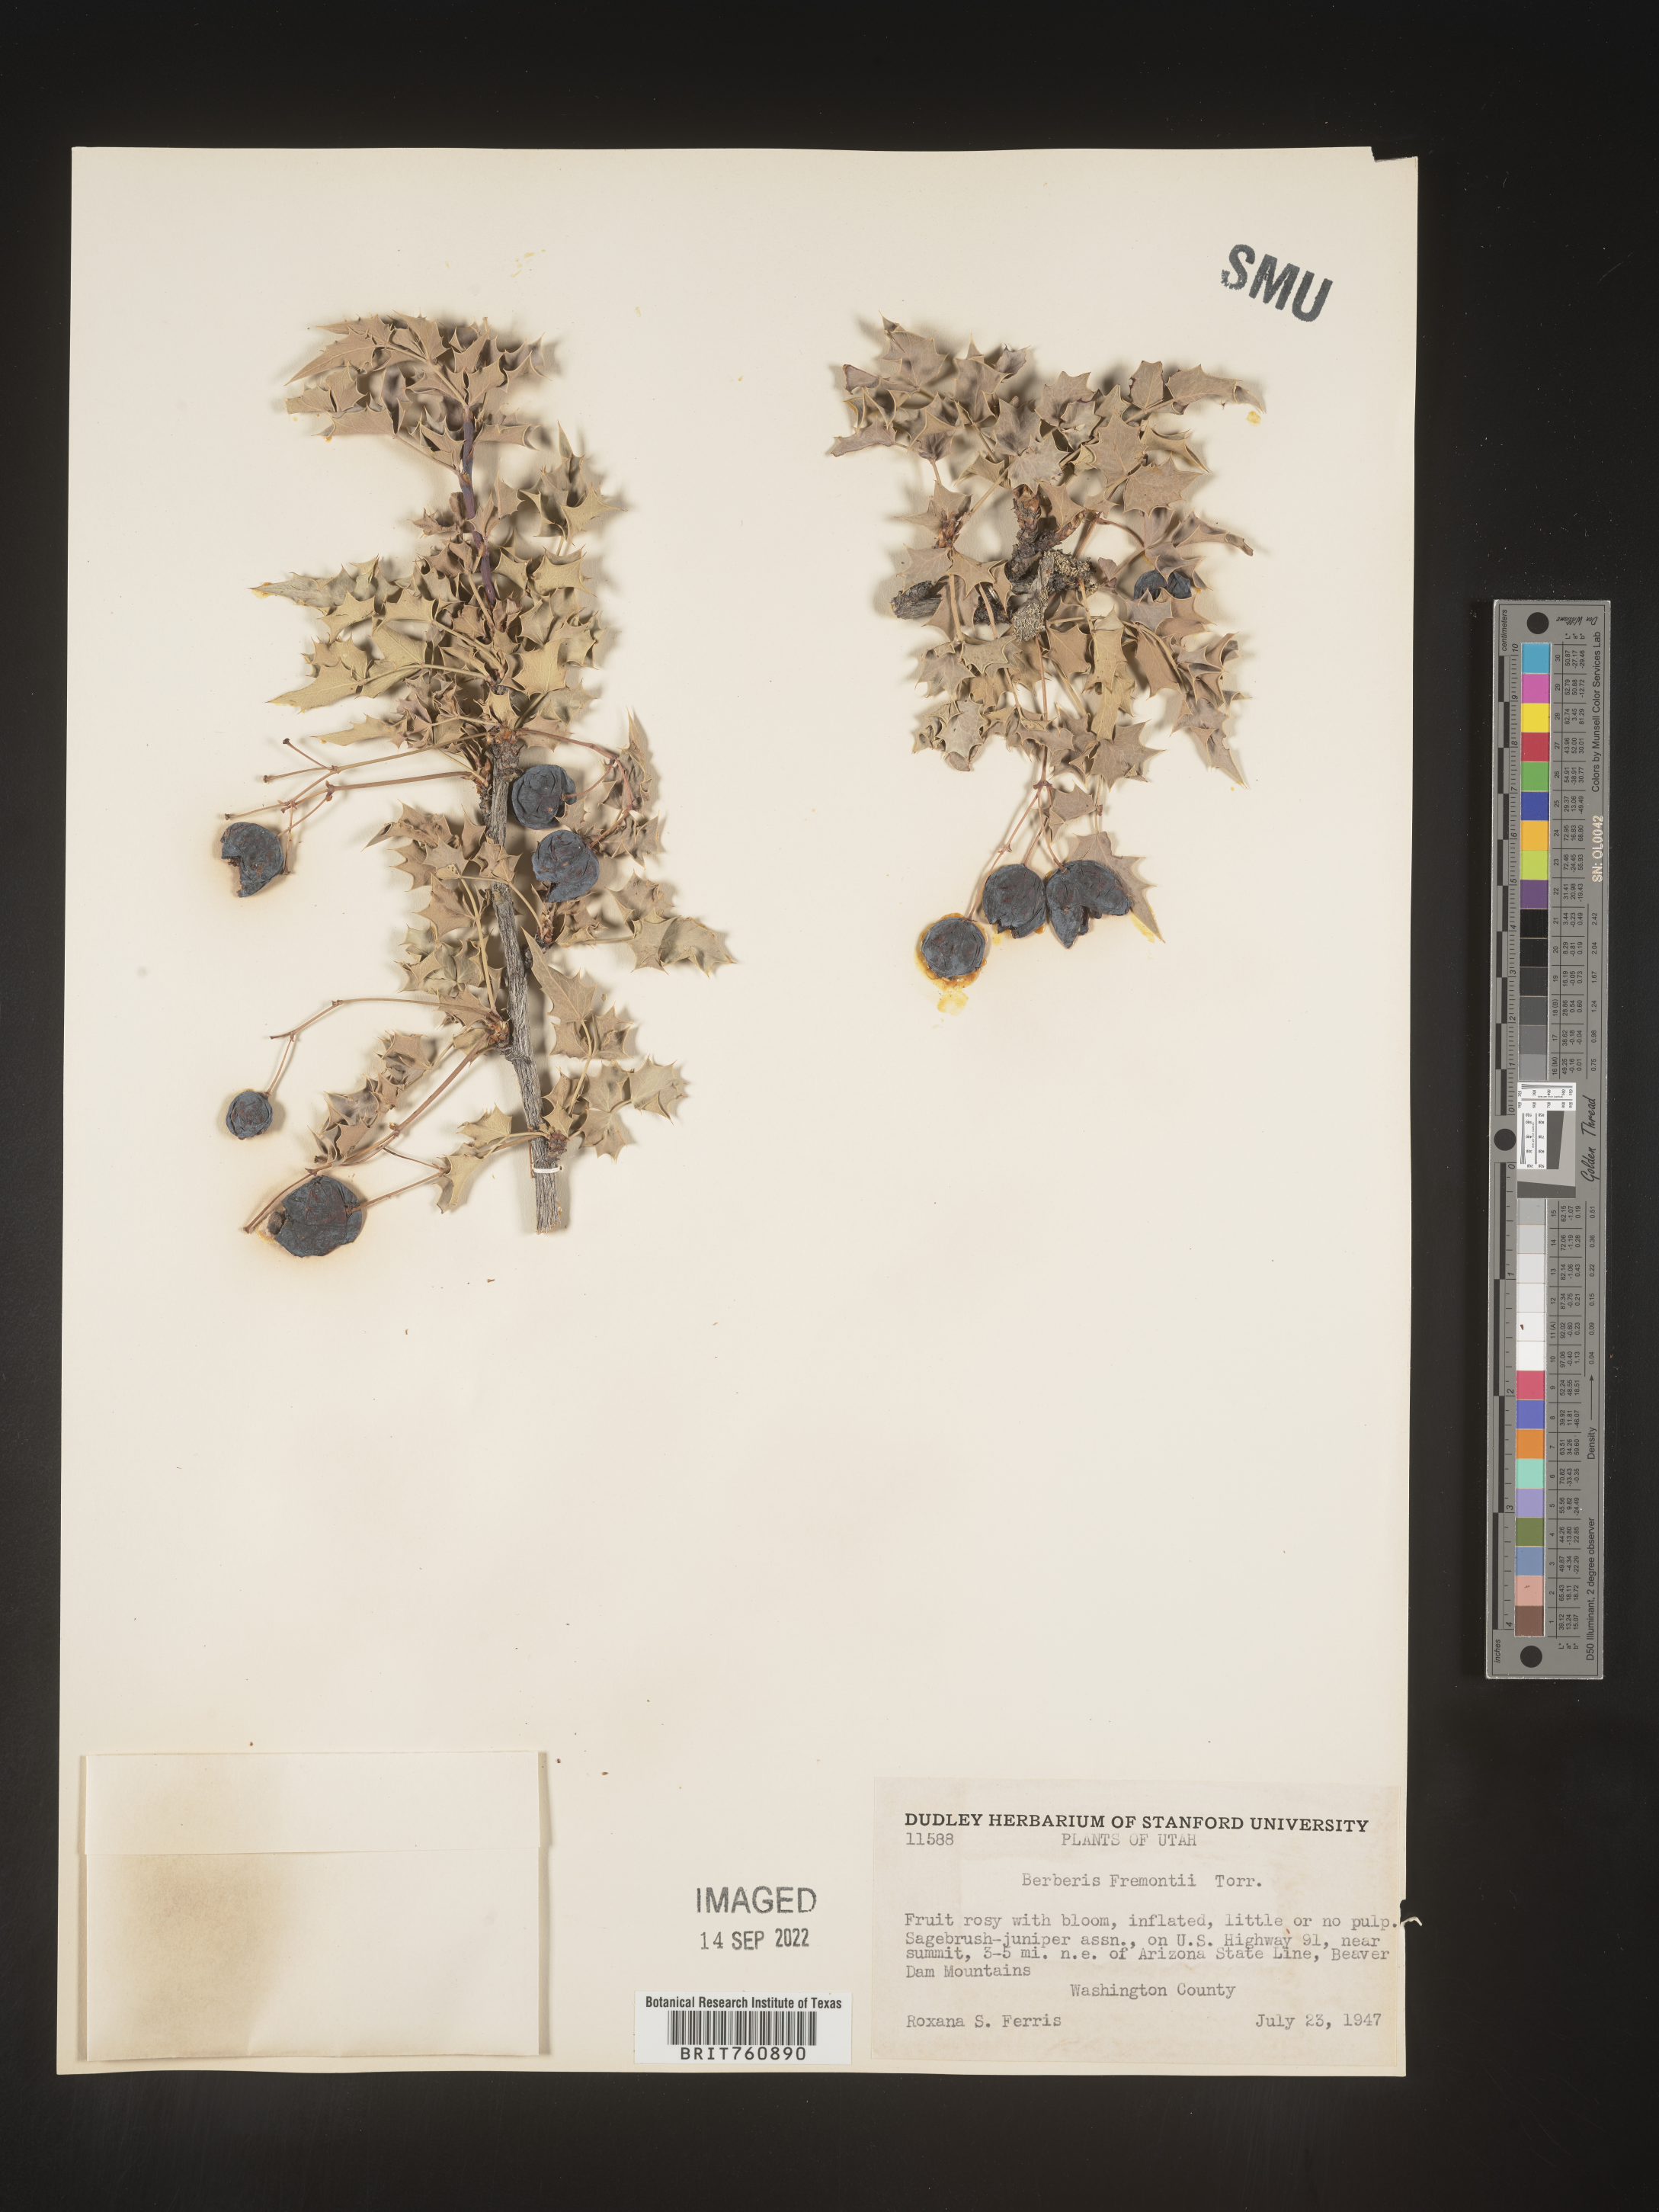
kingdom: Plantae
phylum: Tracheophyta
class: Magnoliopsida
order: Ranunculales
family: Berberidaceae
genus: Mahonia
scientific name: Mahonia
